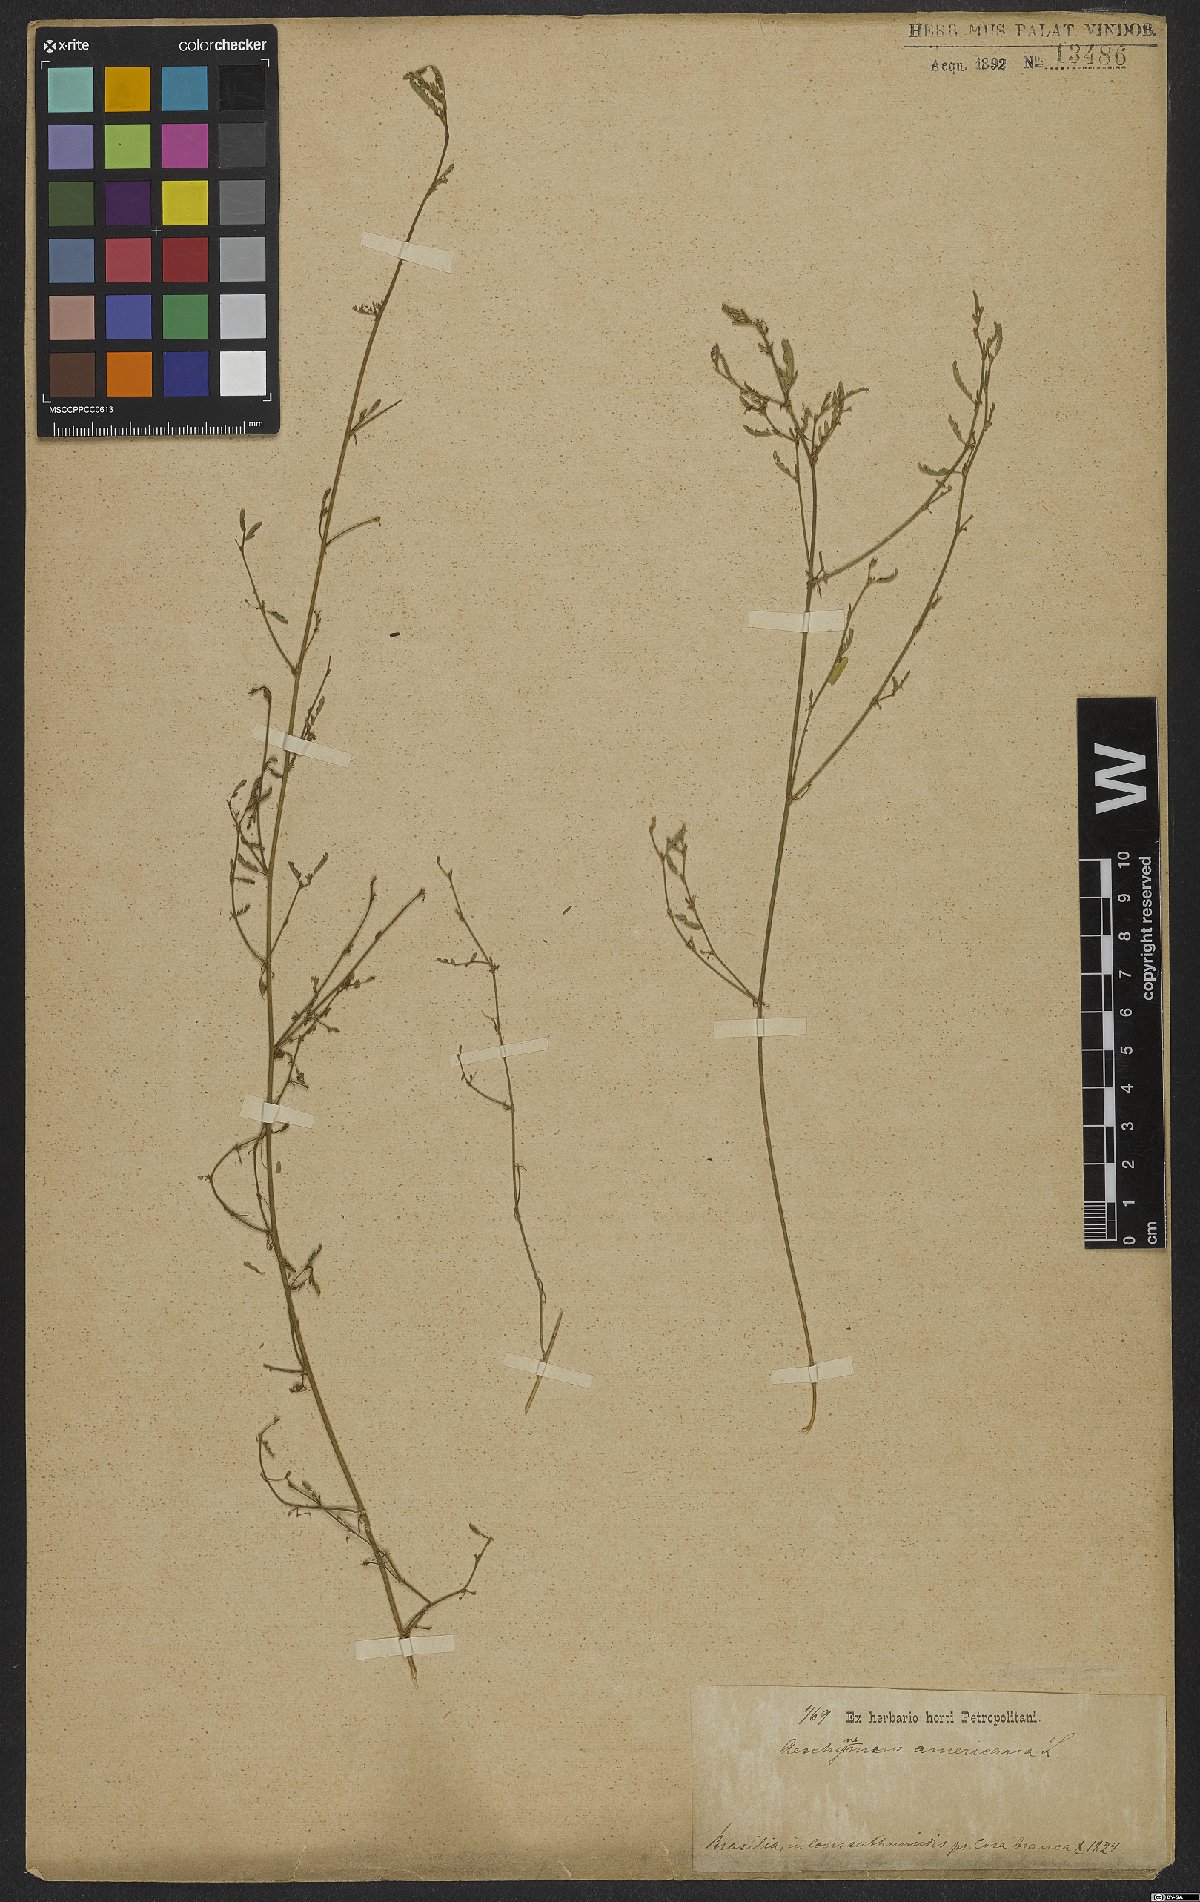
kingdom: Plantae
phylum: Tracheophyta
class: Magnoliopsida
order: Fabales
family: Fabaceae
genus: Aeschynomene
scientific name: Aeschynomene americana
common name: Joint-vetch
